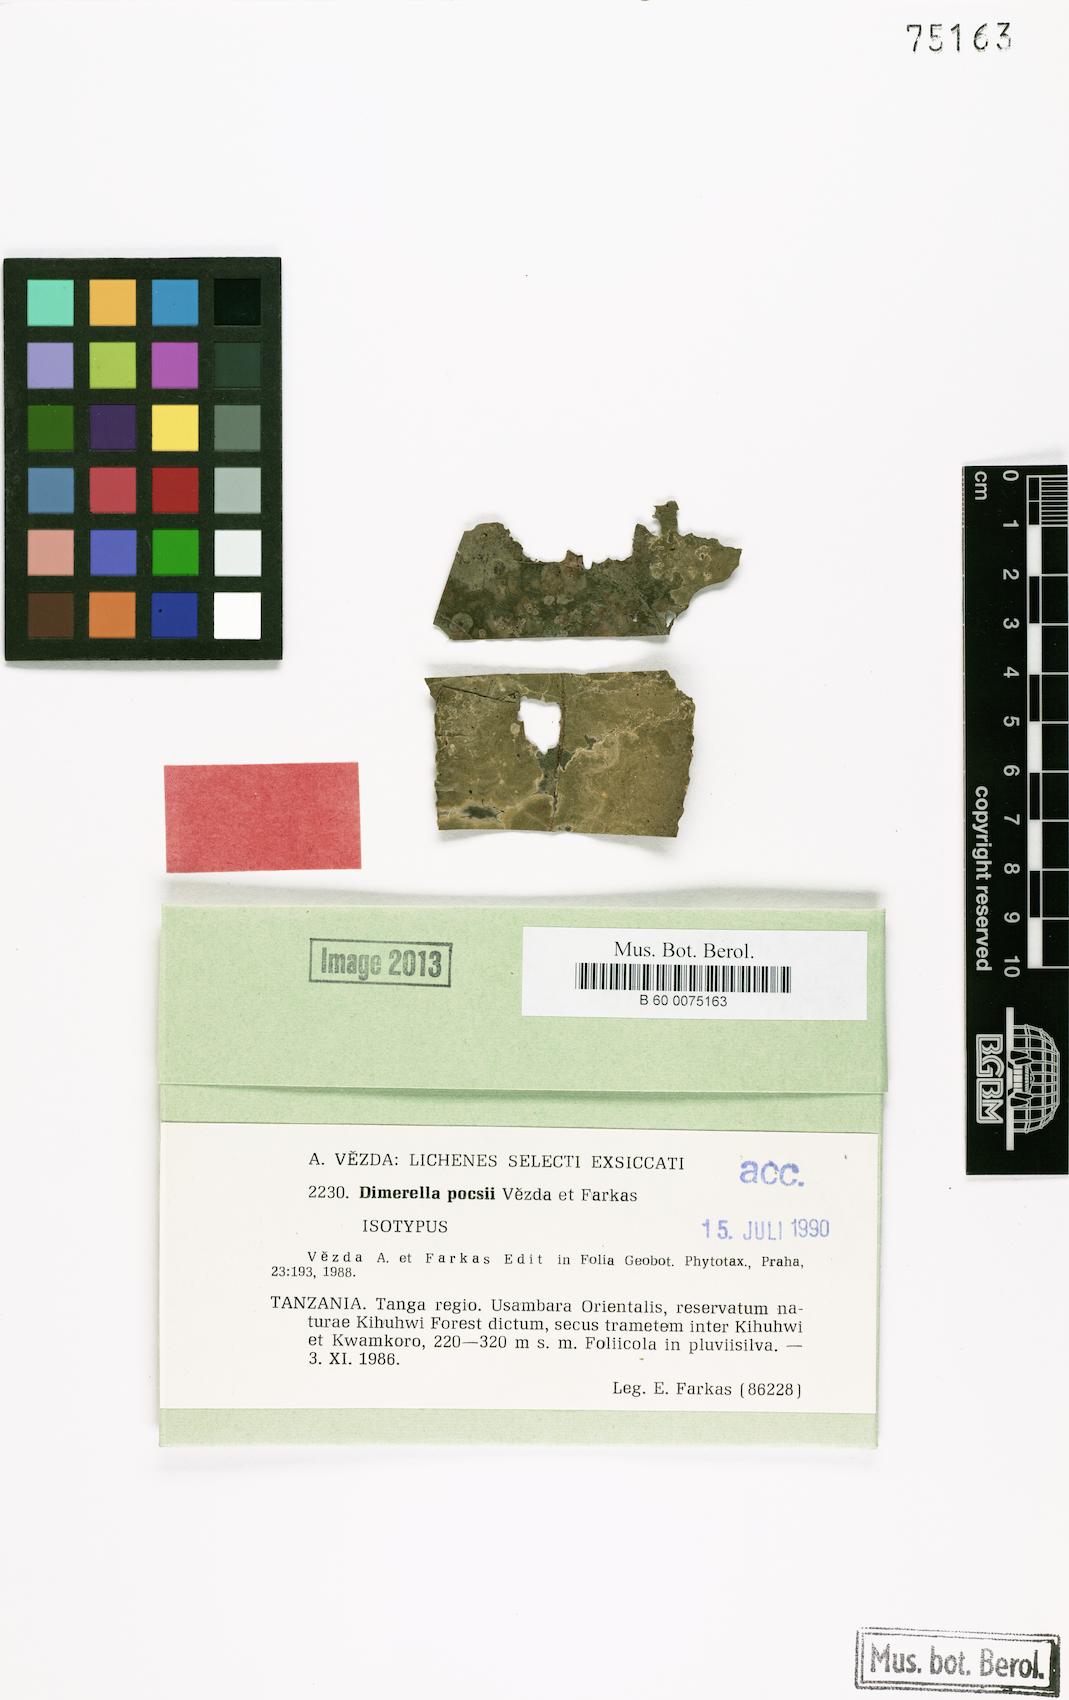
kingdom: Fungi
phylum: Ascomycota
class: Lecanoromycetes
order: Ostropales
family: Coenogoniaceae
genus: Coenogonium
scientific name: Coenogonium pocsii
